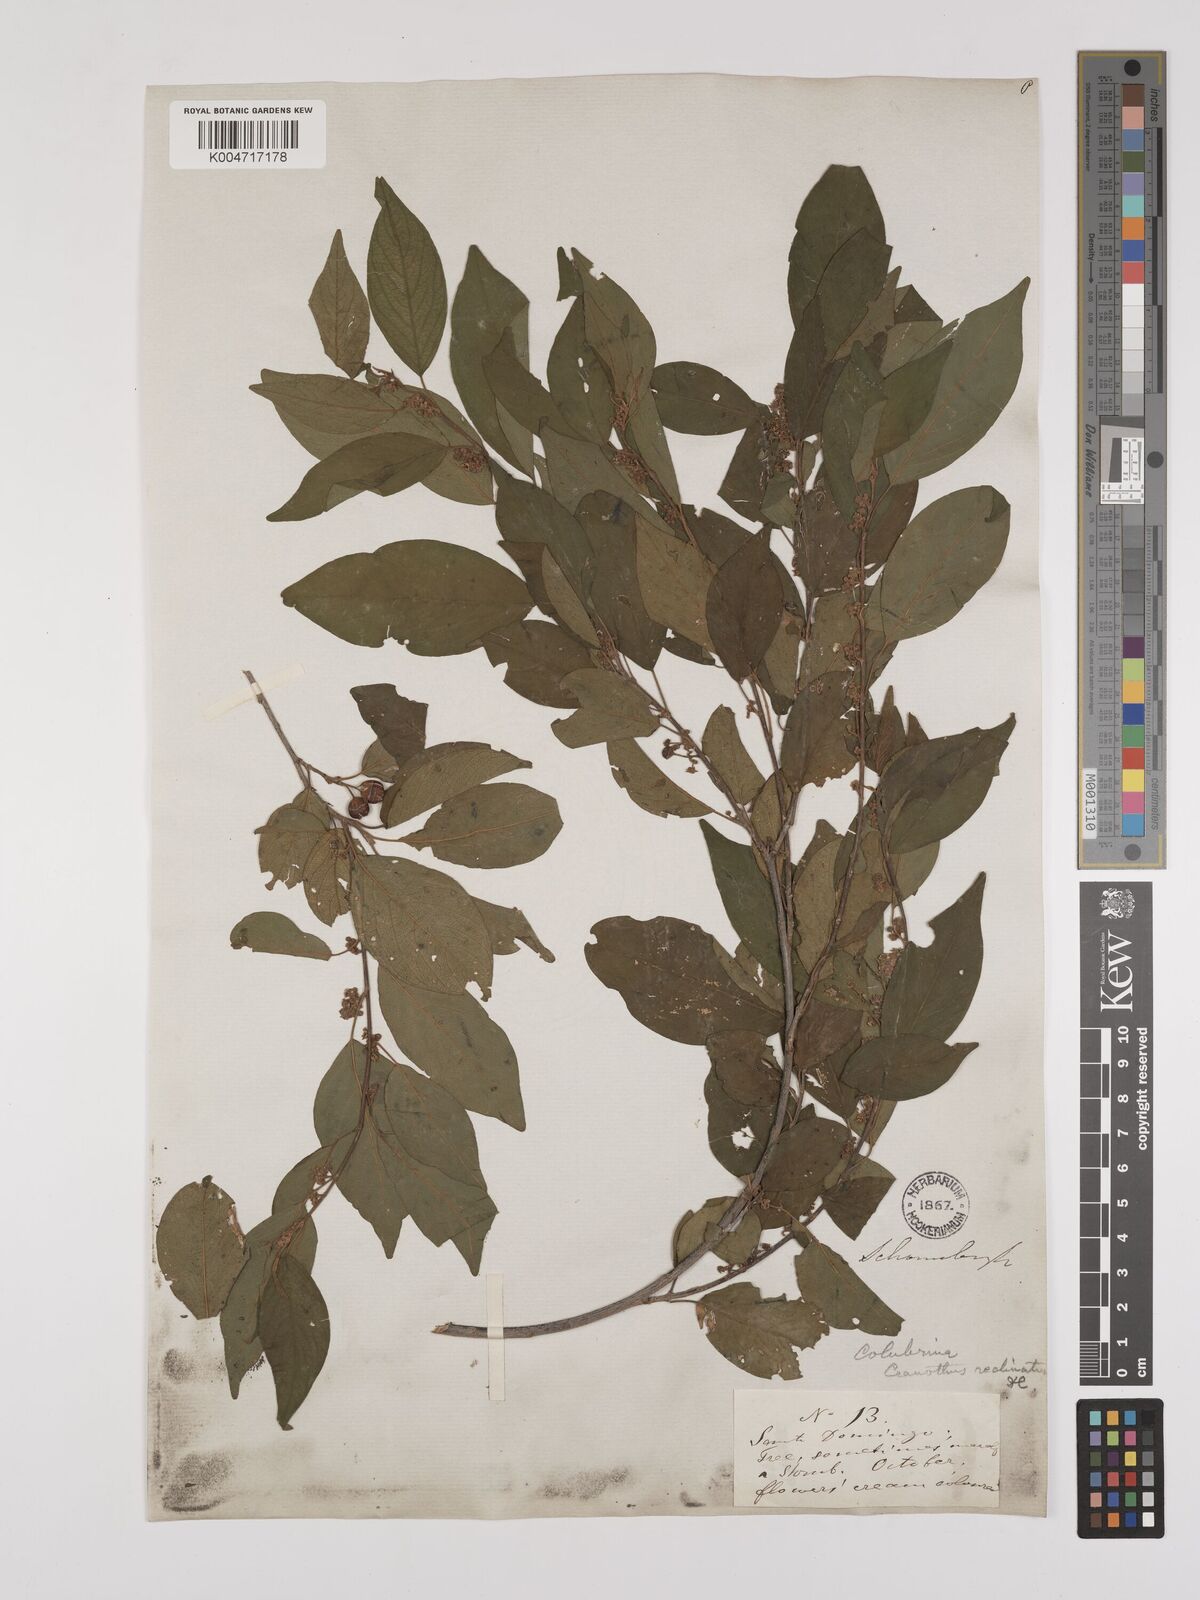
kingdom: Plantae
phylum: Tracheophyta
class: Magnoliopsida
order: Rosales
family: Rhamnaceae
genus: Colubrina
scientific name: Colubrina elliptica
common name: Soldierwood
